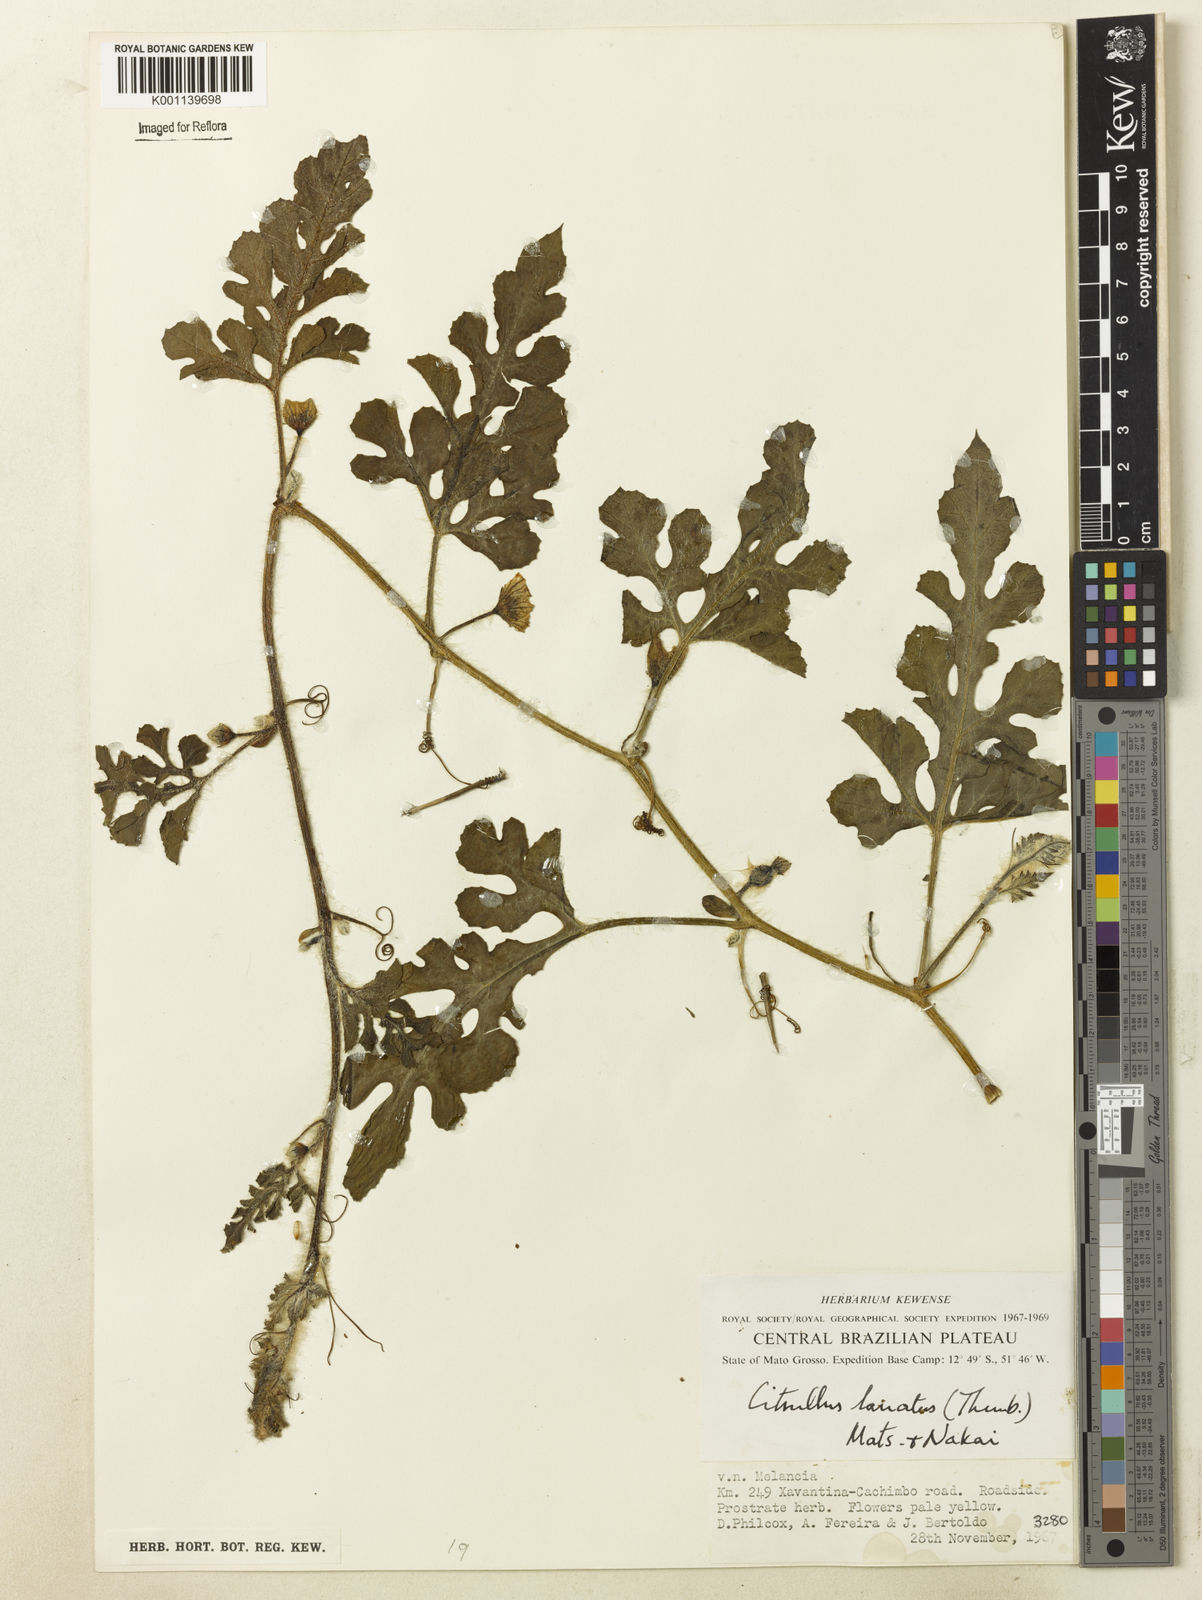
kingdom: Plantae
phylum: Tracheophyta
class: Magnoliopsida
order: Cucurbitales
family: Cucurbitaceae
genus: Citrullus
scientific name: Citrullus lanatus
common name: Watermelon
